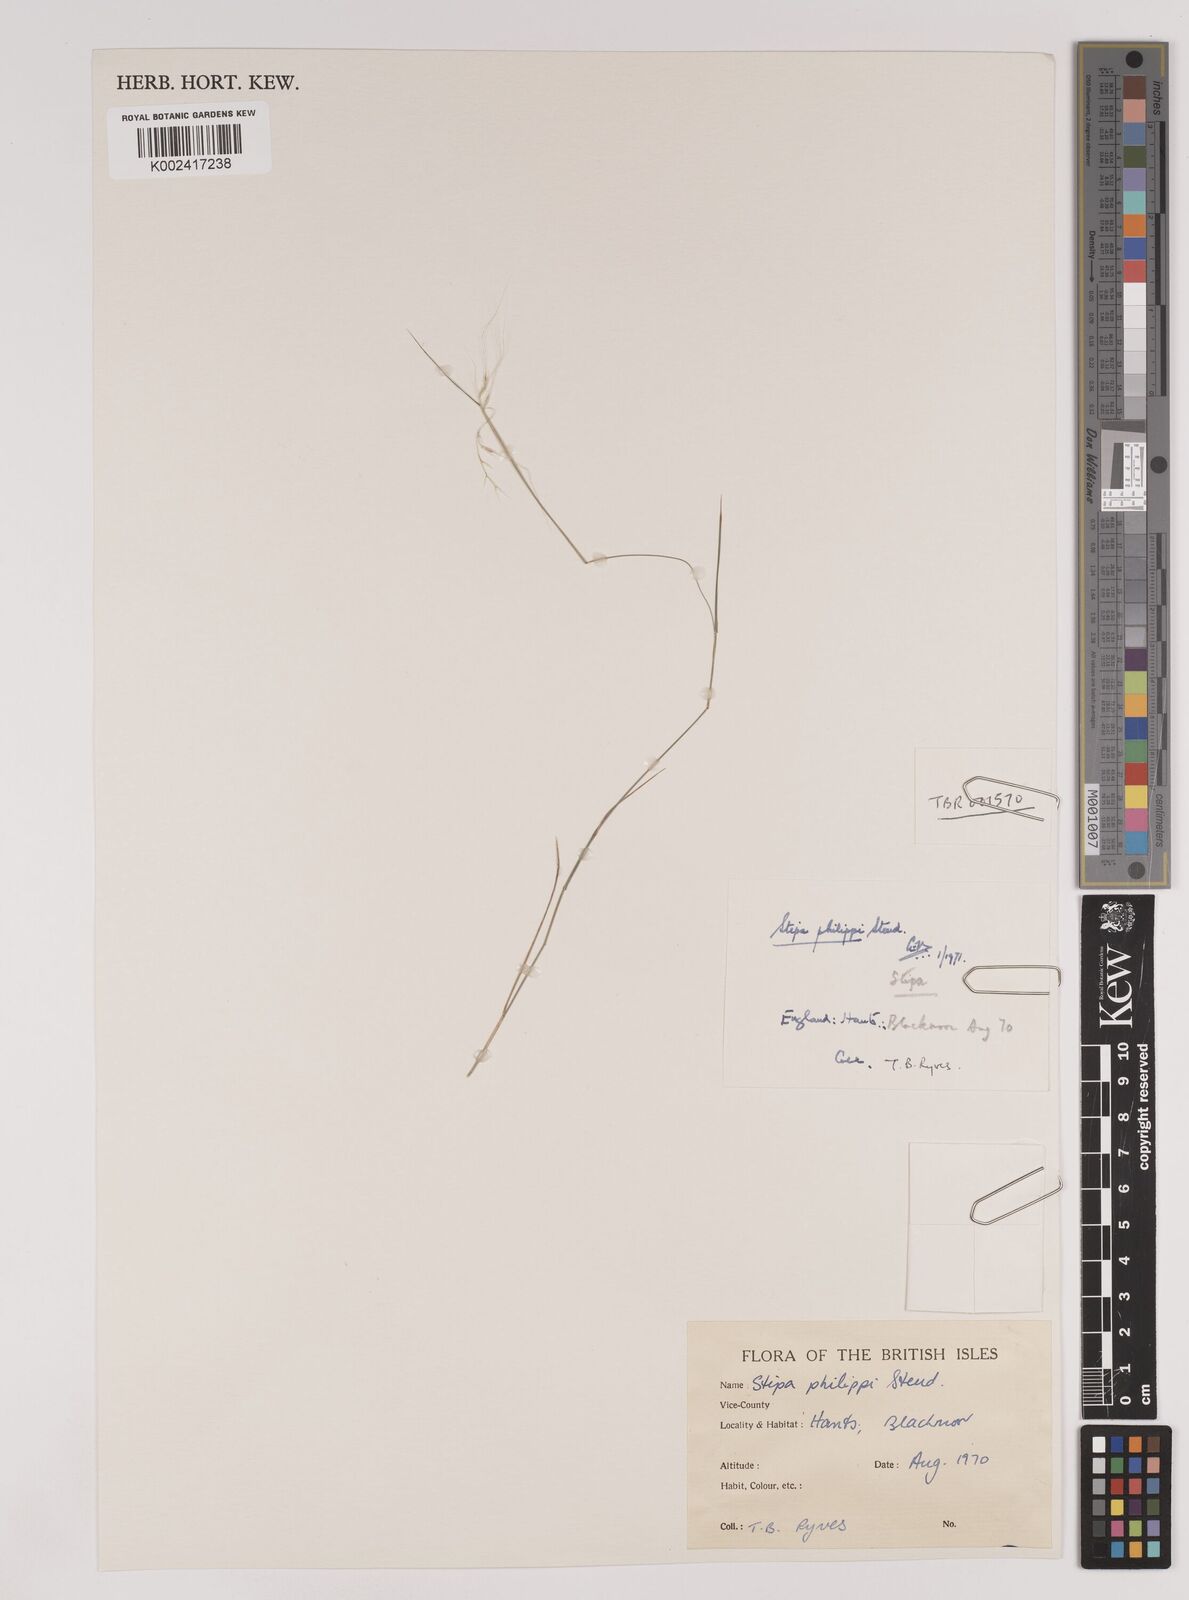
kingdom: Plantae
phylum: Tracheophyta
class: Liliopsida
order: Poales
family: Poaceae
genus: Nassella
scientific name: Nassella philippii
